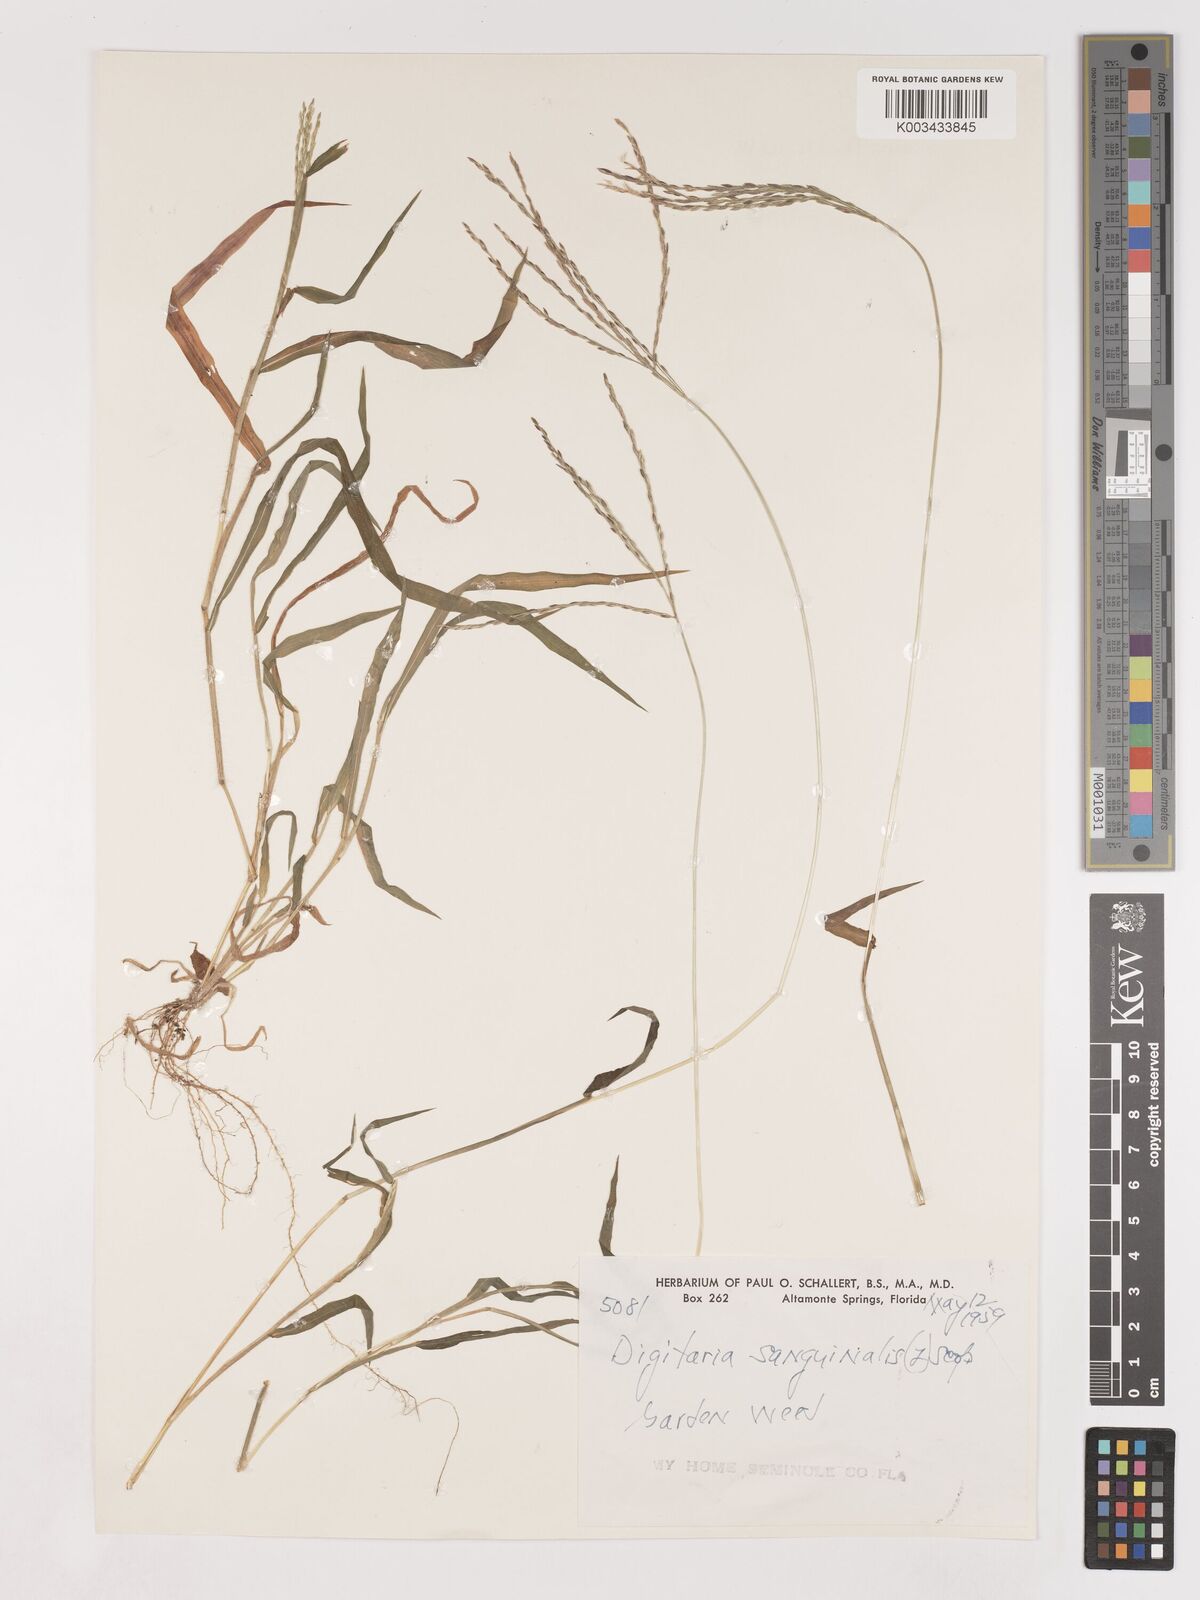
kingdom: Plantae
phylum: Tracheophyta
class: Liliopsida
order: Poales
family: Poaceae
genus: Digitaria
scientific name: Digitaria ciliaris
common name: Tropical finger-grass
